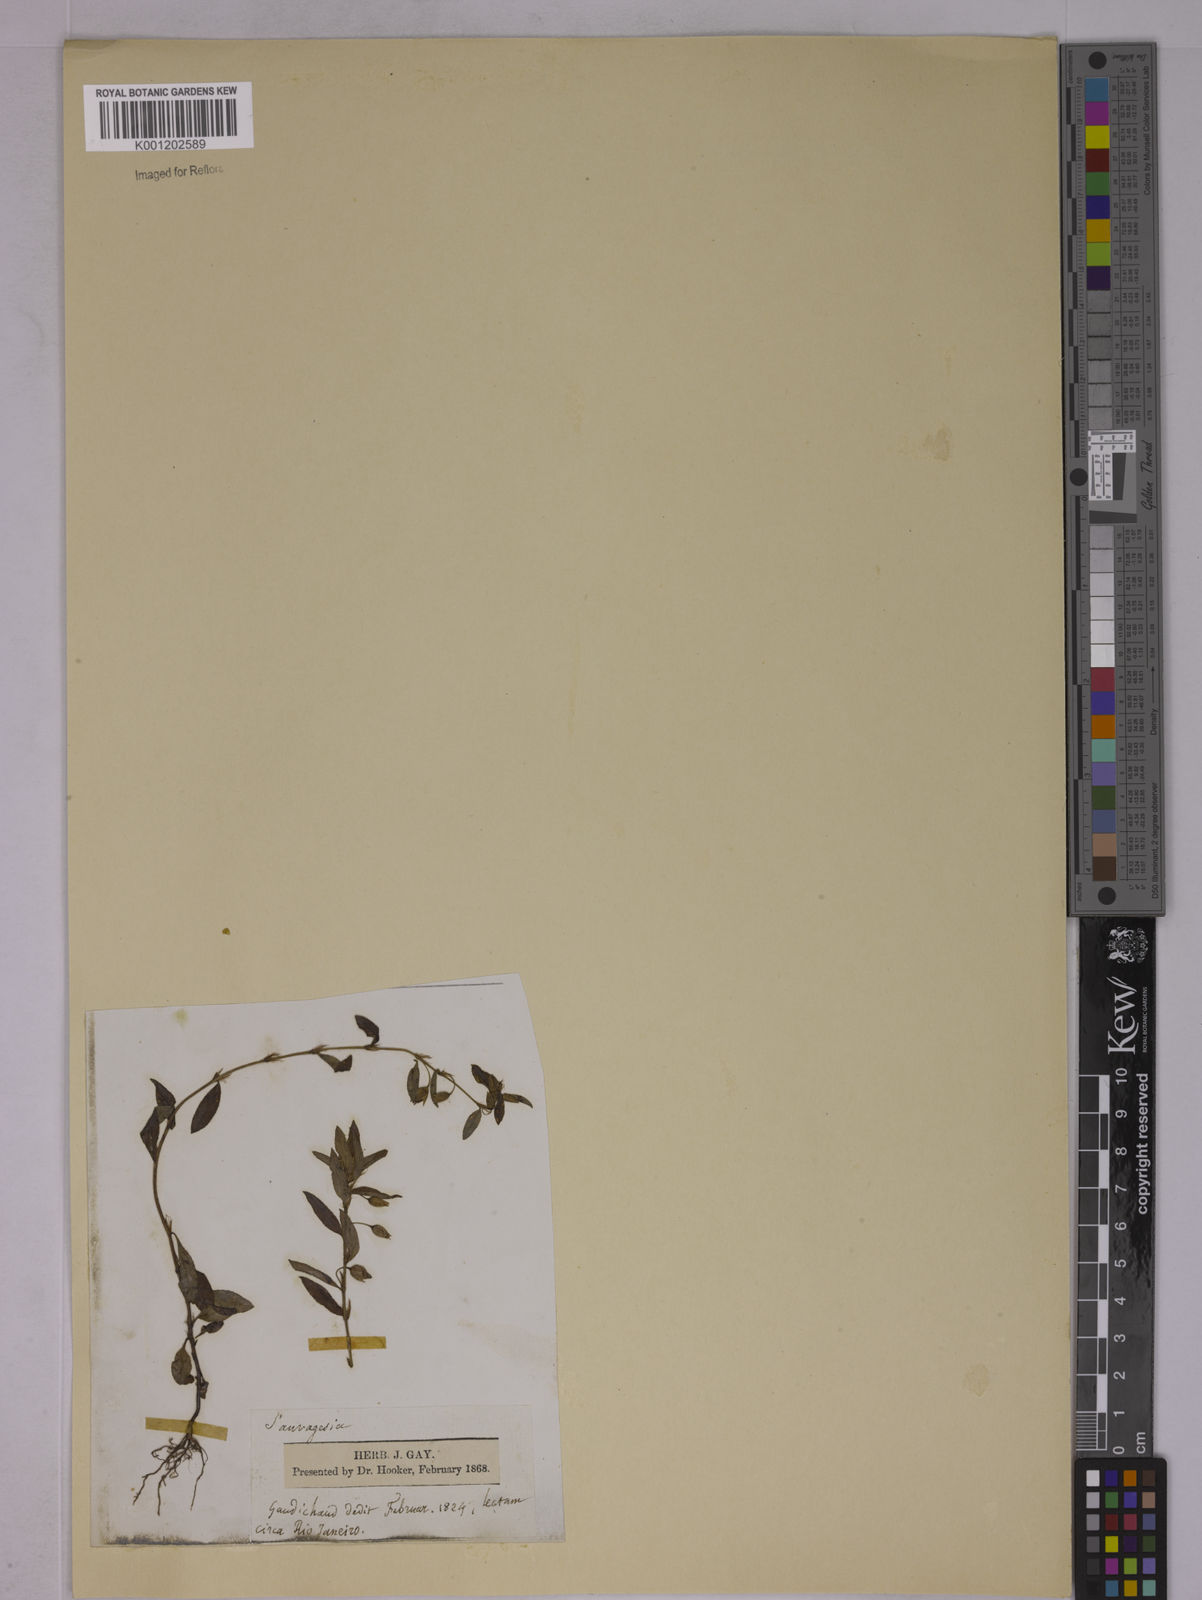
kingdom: Plantae
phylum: Tracheophyta
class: Magnoliopsida
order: Malpighiales
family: Ochnaceae
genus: Sauvagesia
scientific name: Sauvagesia erecta
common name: Creole tea
